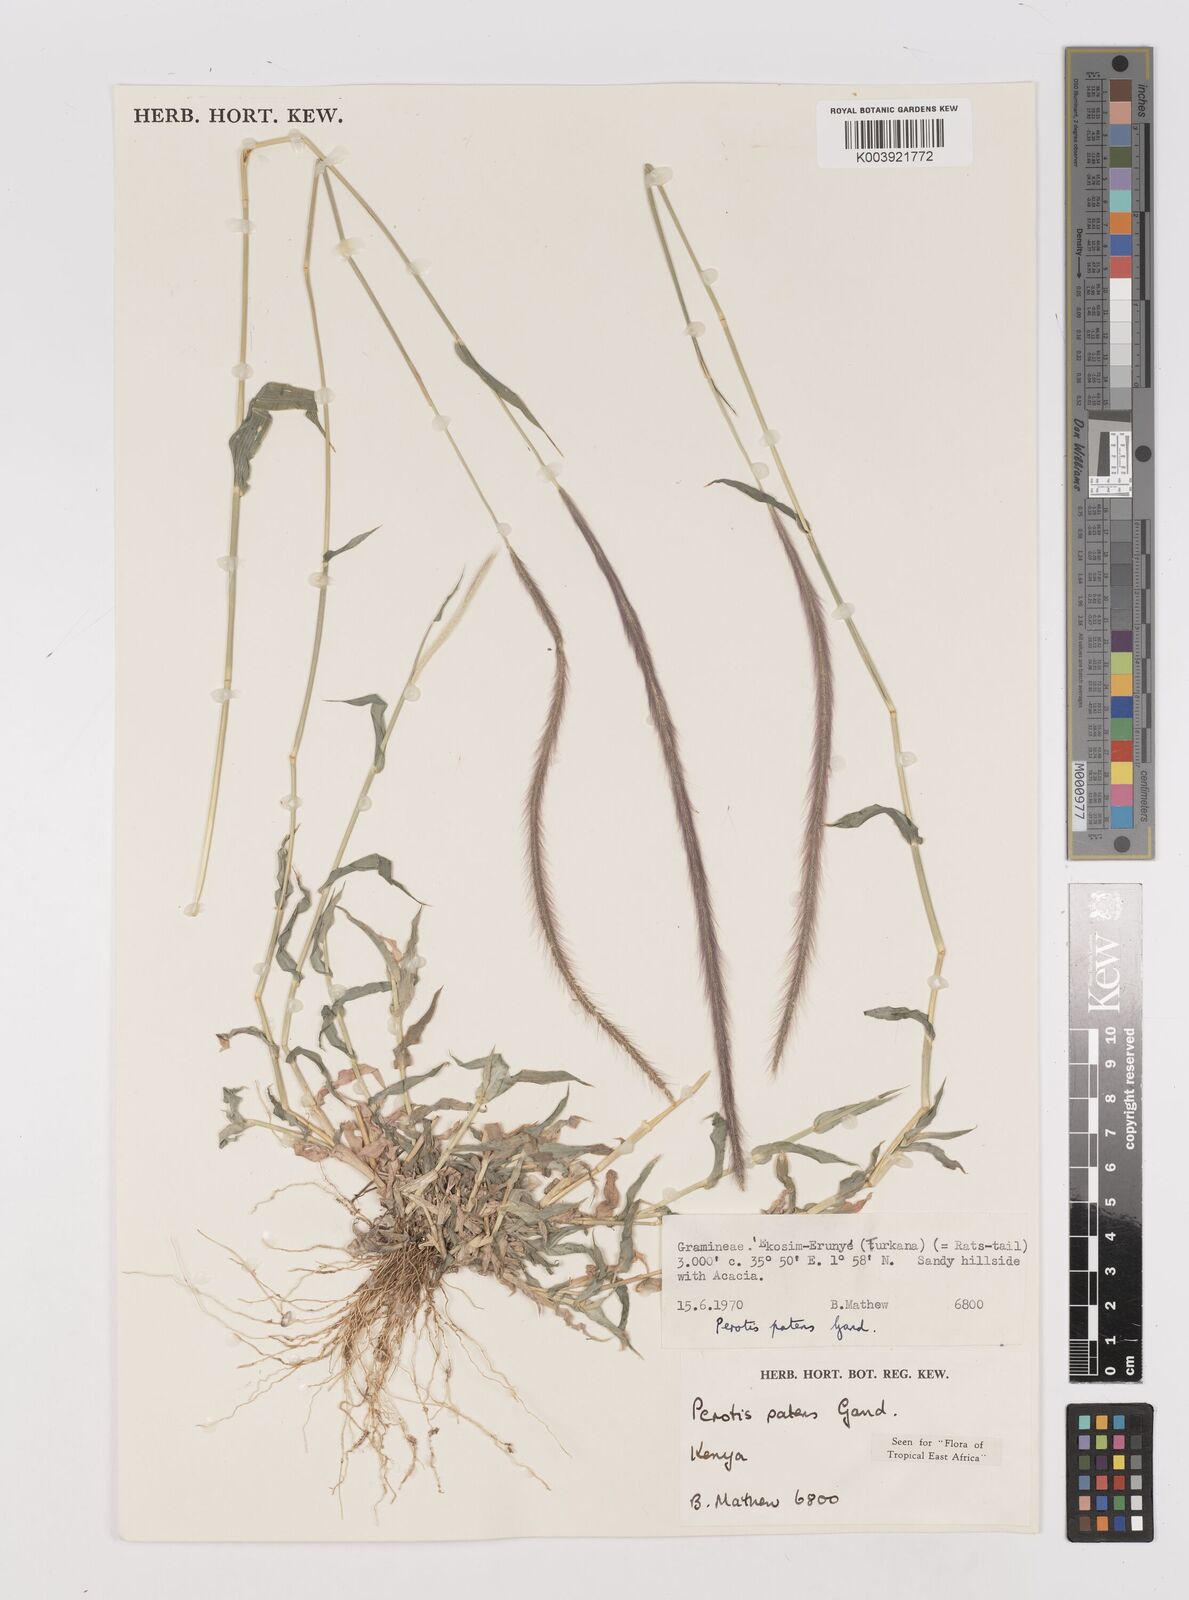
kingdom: Plantae
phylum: Tracheophyta
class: Liliopsida
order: Poales
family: Poaceae
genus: Perotis
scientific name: Perotis patens
